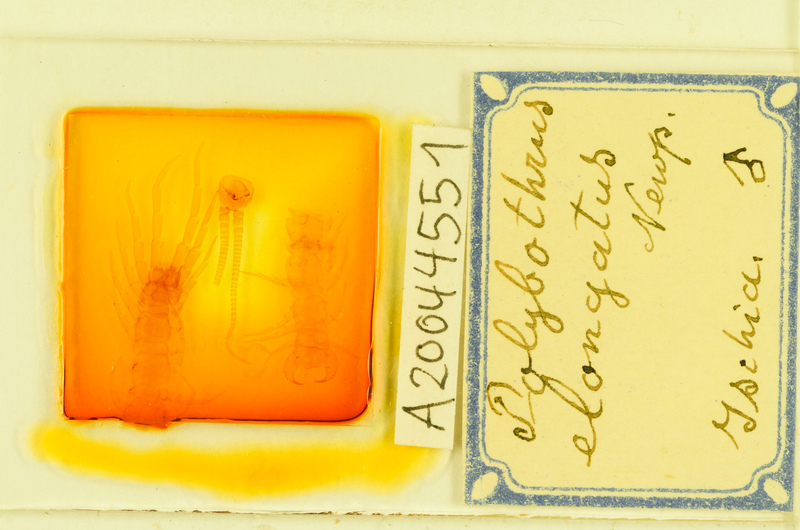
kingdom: Animalia
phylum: Arthropoda
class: Chilopoda
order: Lithobiomorpha
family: Lithobiidae
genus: Polybothrus
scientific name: Polybothrus
